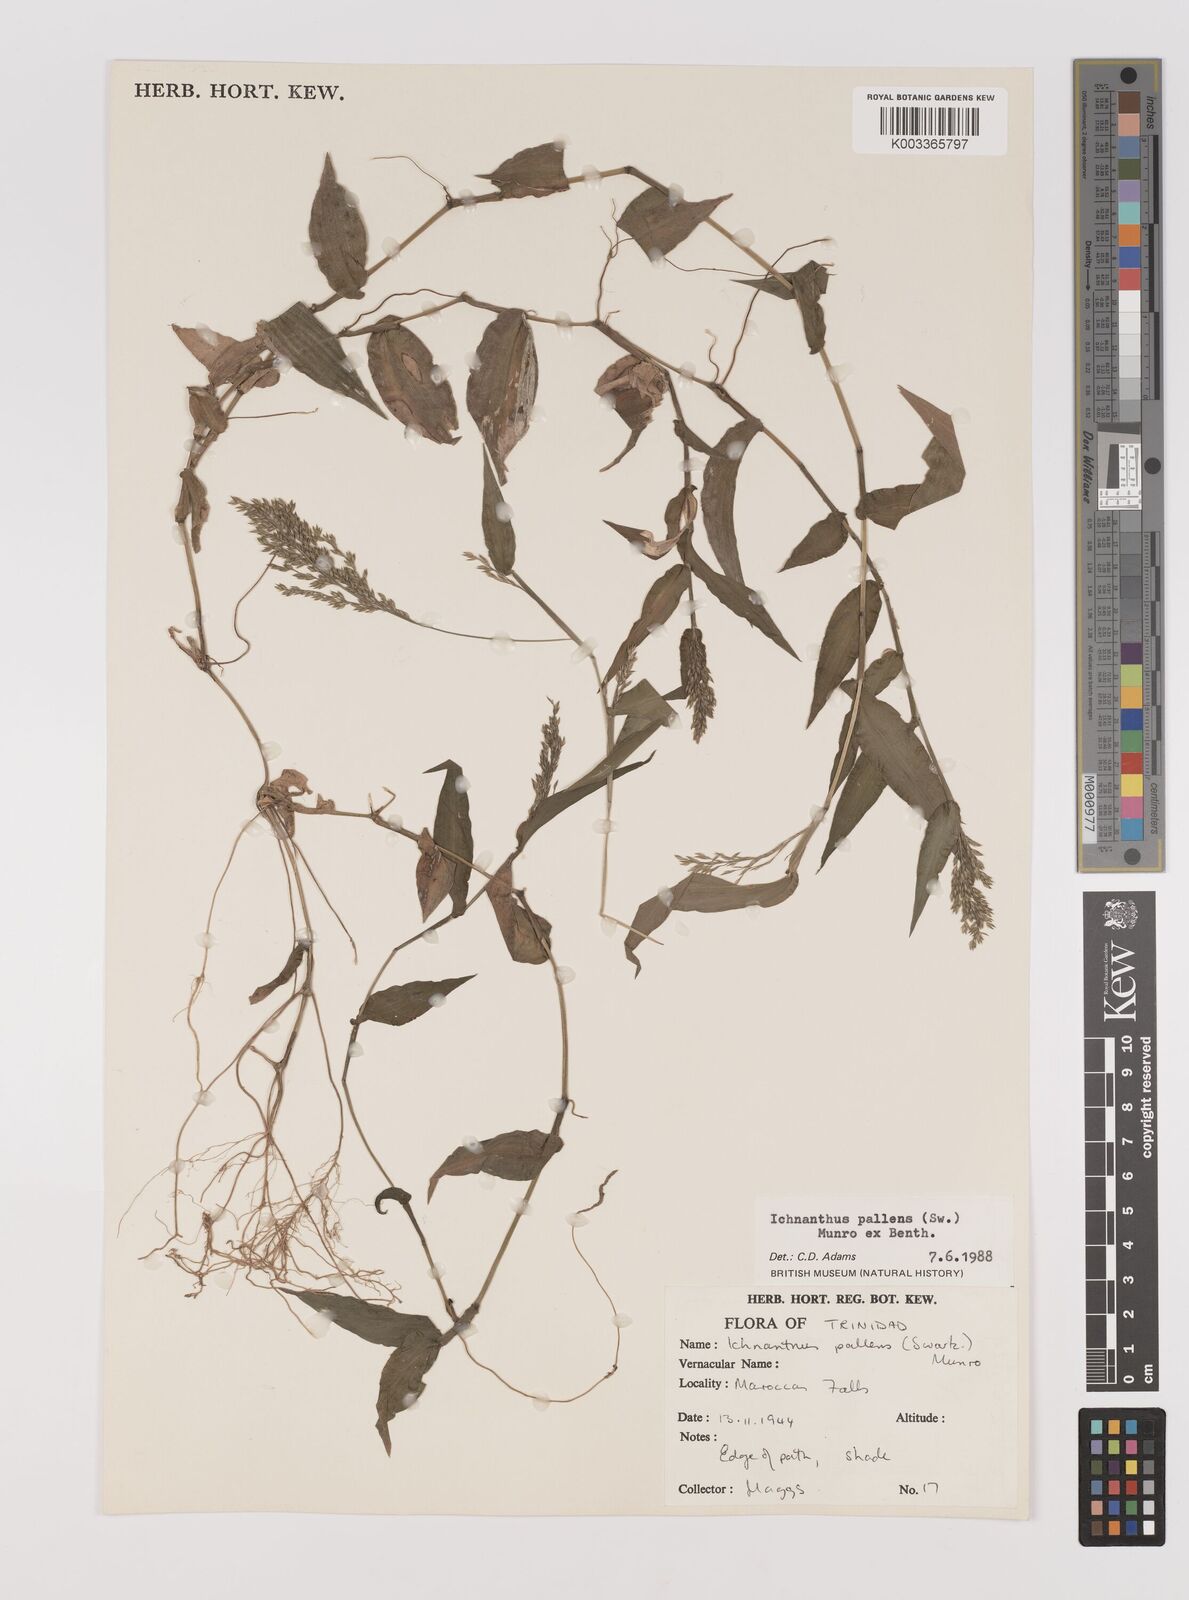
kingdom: Plantae
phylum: Tracheophyta
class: Liliopsida
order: Poales
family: Poaceae
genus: Ichnanthus
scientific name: Ichnanthus pallens
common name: Water grass
